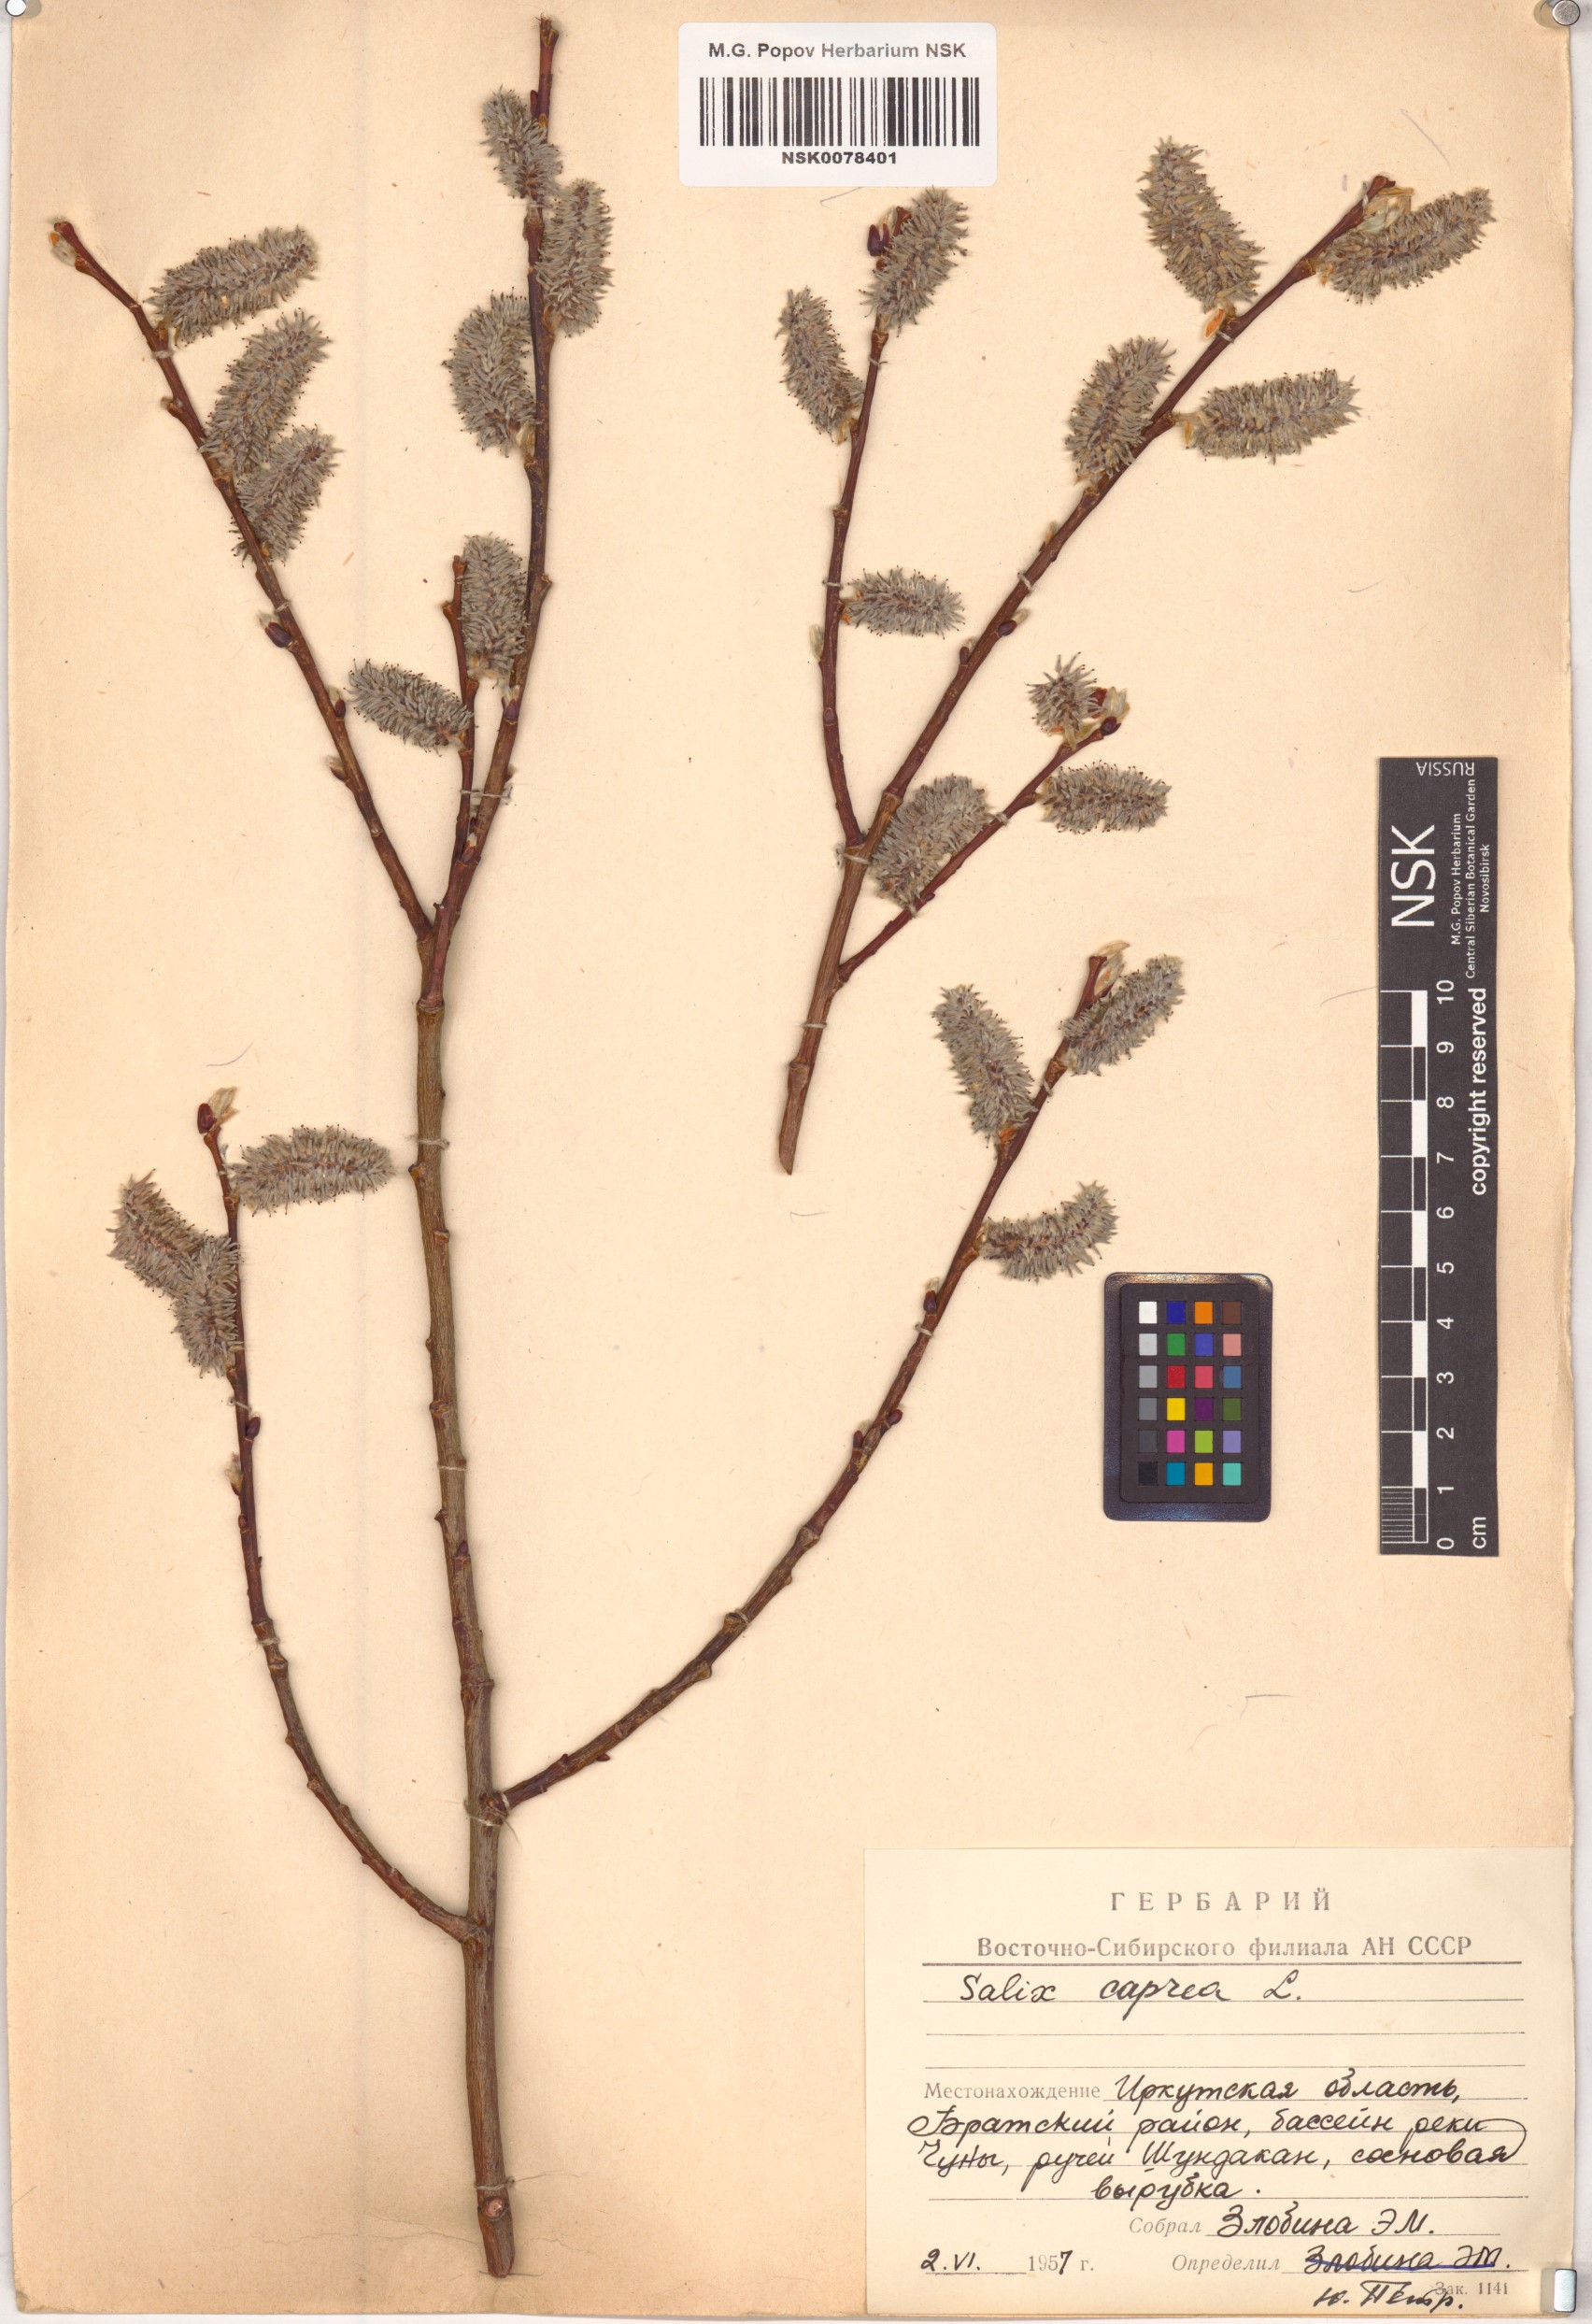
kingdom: Plantae
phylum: Tracheophyta
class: Magnoliopsida
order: Malpighiales
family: Salicaceae
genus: Salix
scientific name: Salix caprea
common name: Goat willow
